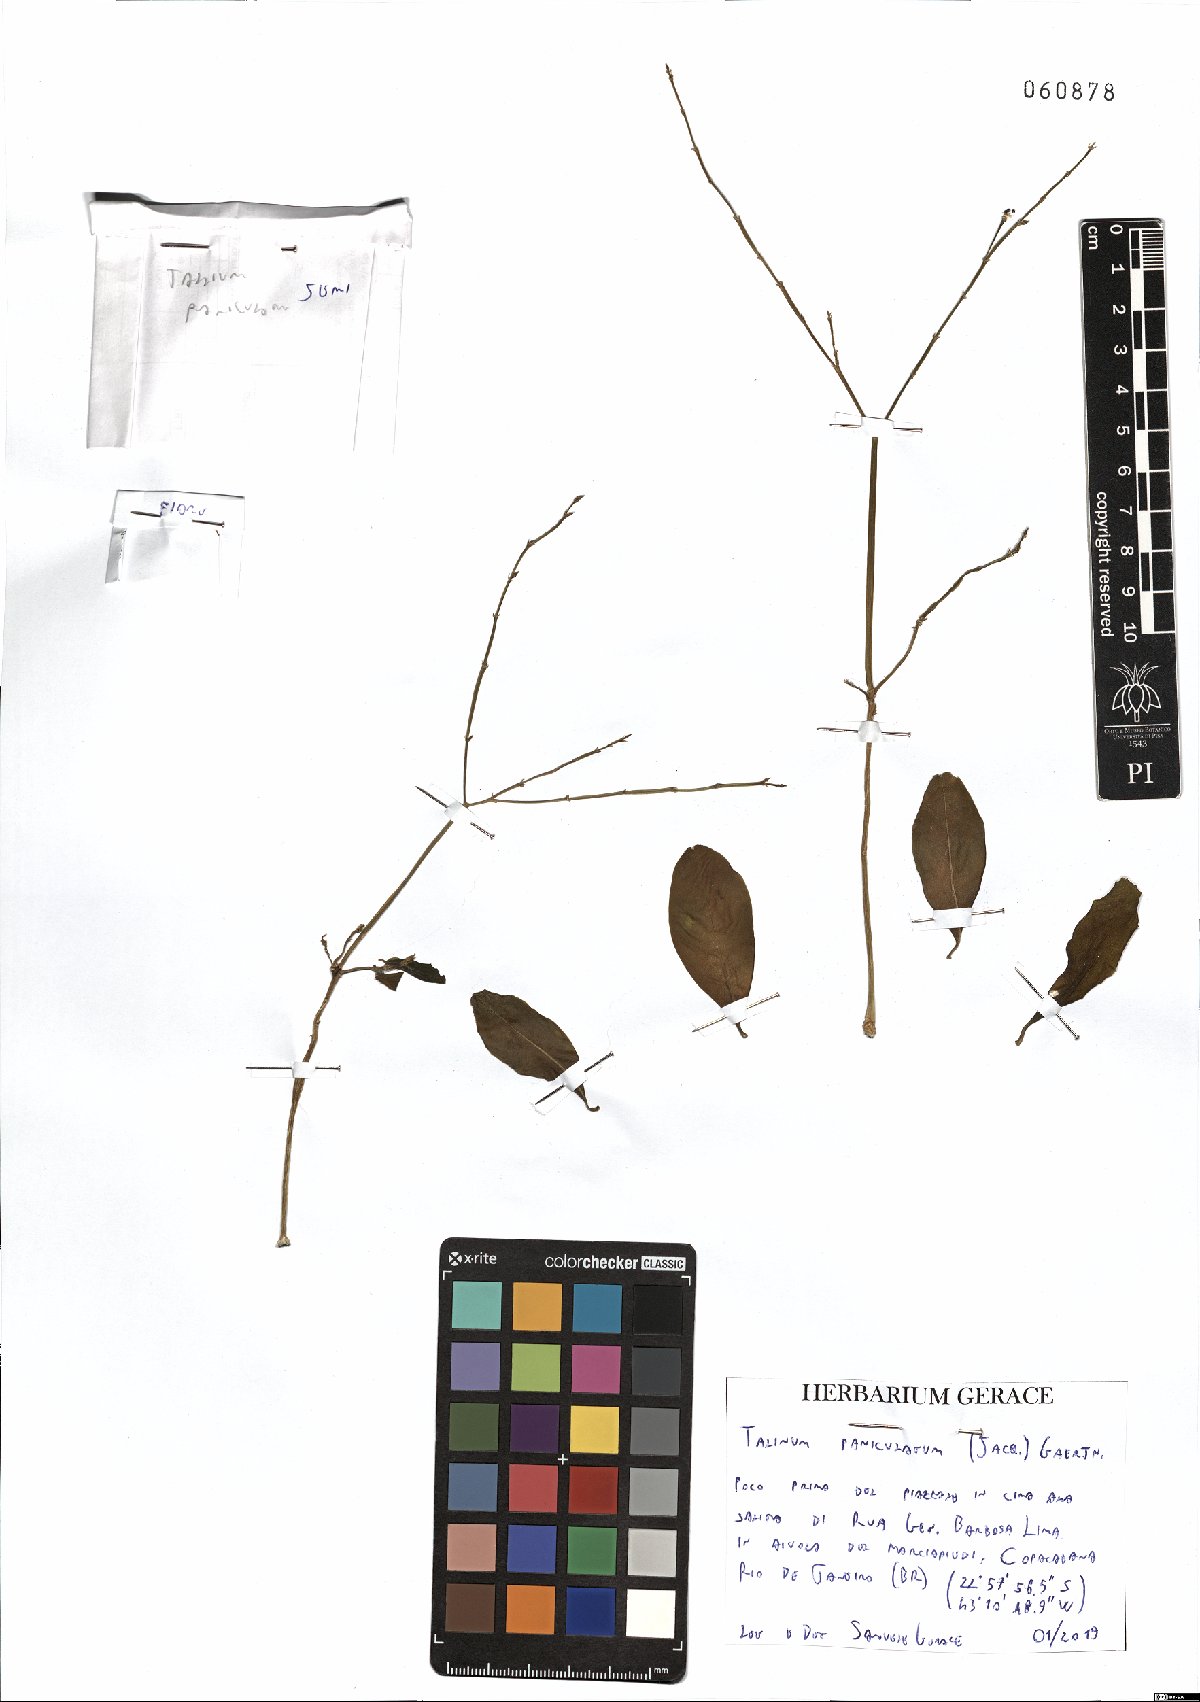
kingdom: Plantae
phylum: Tracheophyta
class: Magnoliopsida
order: Caryophyllales
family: Talinaceae
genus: Talinum
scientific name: Talinum paniculatum
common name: Jewels of opar
